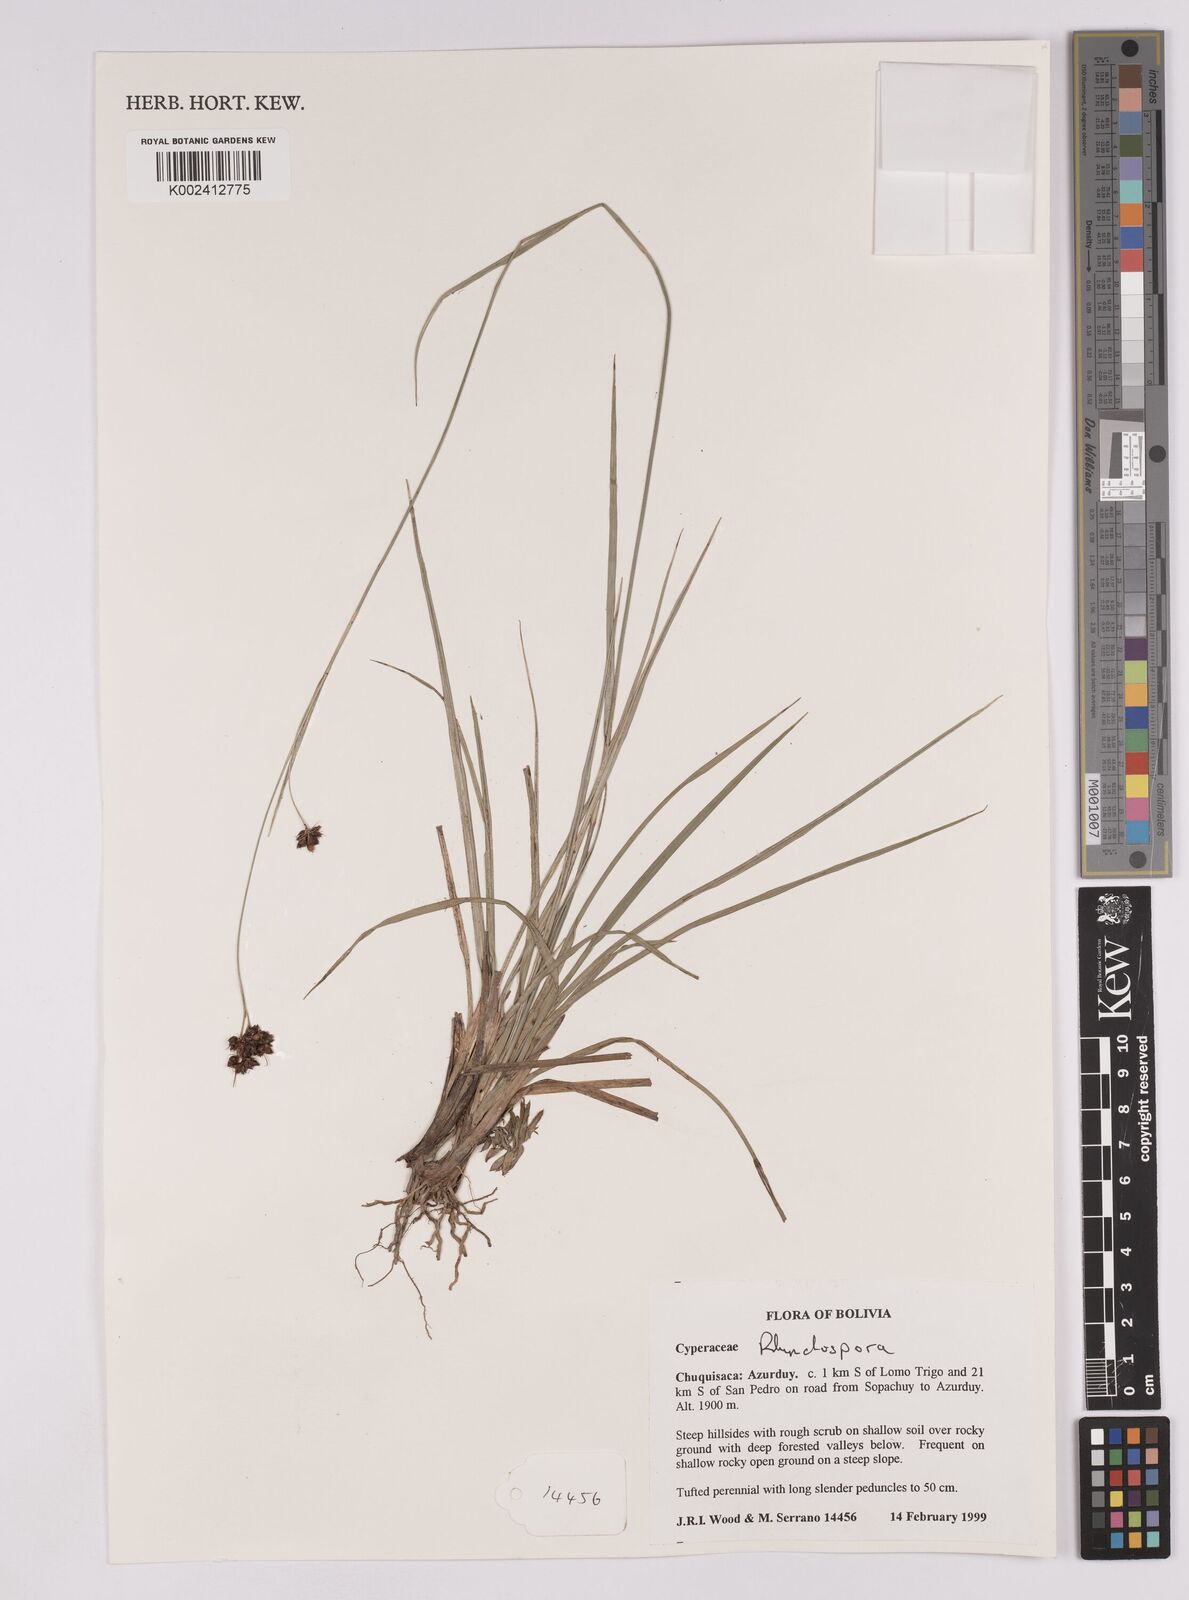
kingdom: Plantae
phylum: Tracheophyta
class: Liliopsida
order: Poales
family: Cyperaceae
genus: Rhynchospora
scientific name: Rhynchospora
